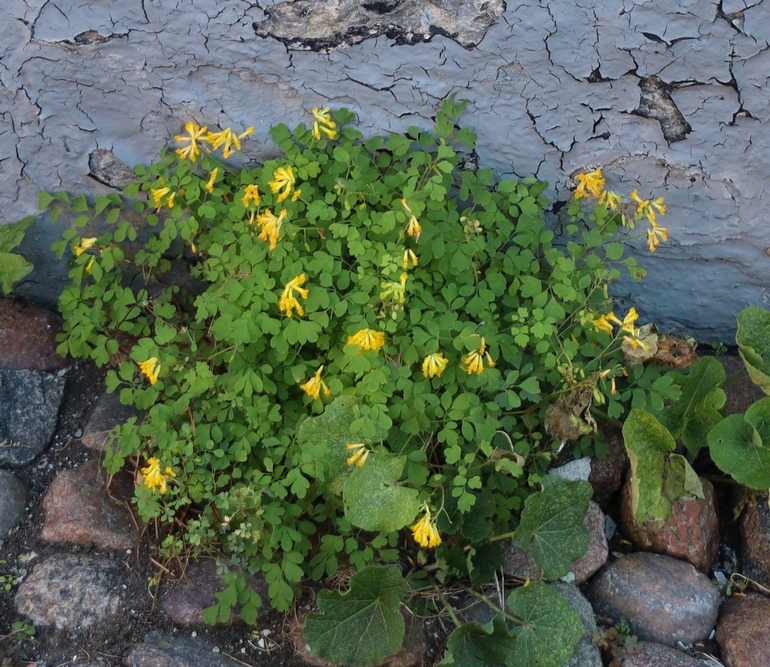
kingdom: Plantae
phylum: Tracheophyta
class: Magnoliopsida
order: Ranunculales
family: Papaveraceae
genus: Pseudofumaria
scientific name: Pseudofumaria lutea
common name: Gul lærkespore
